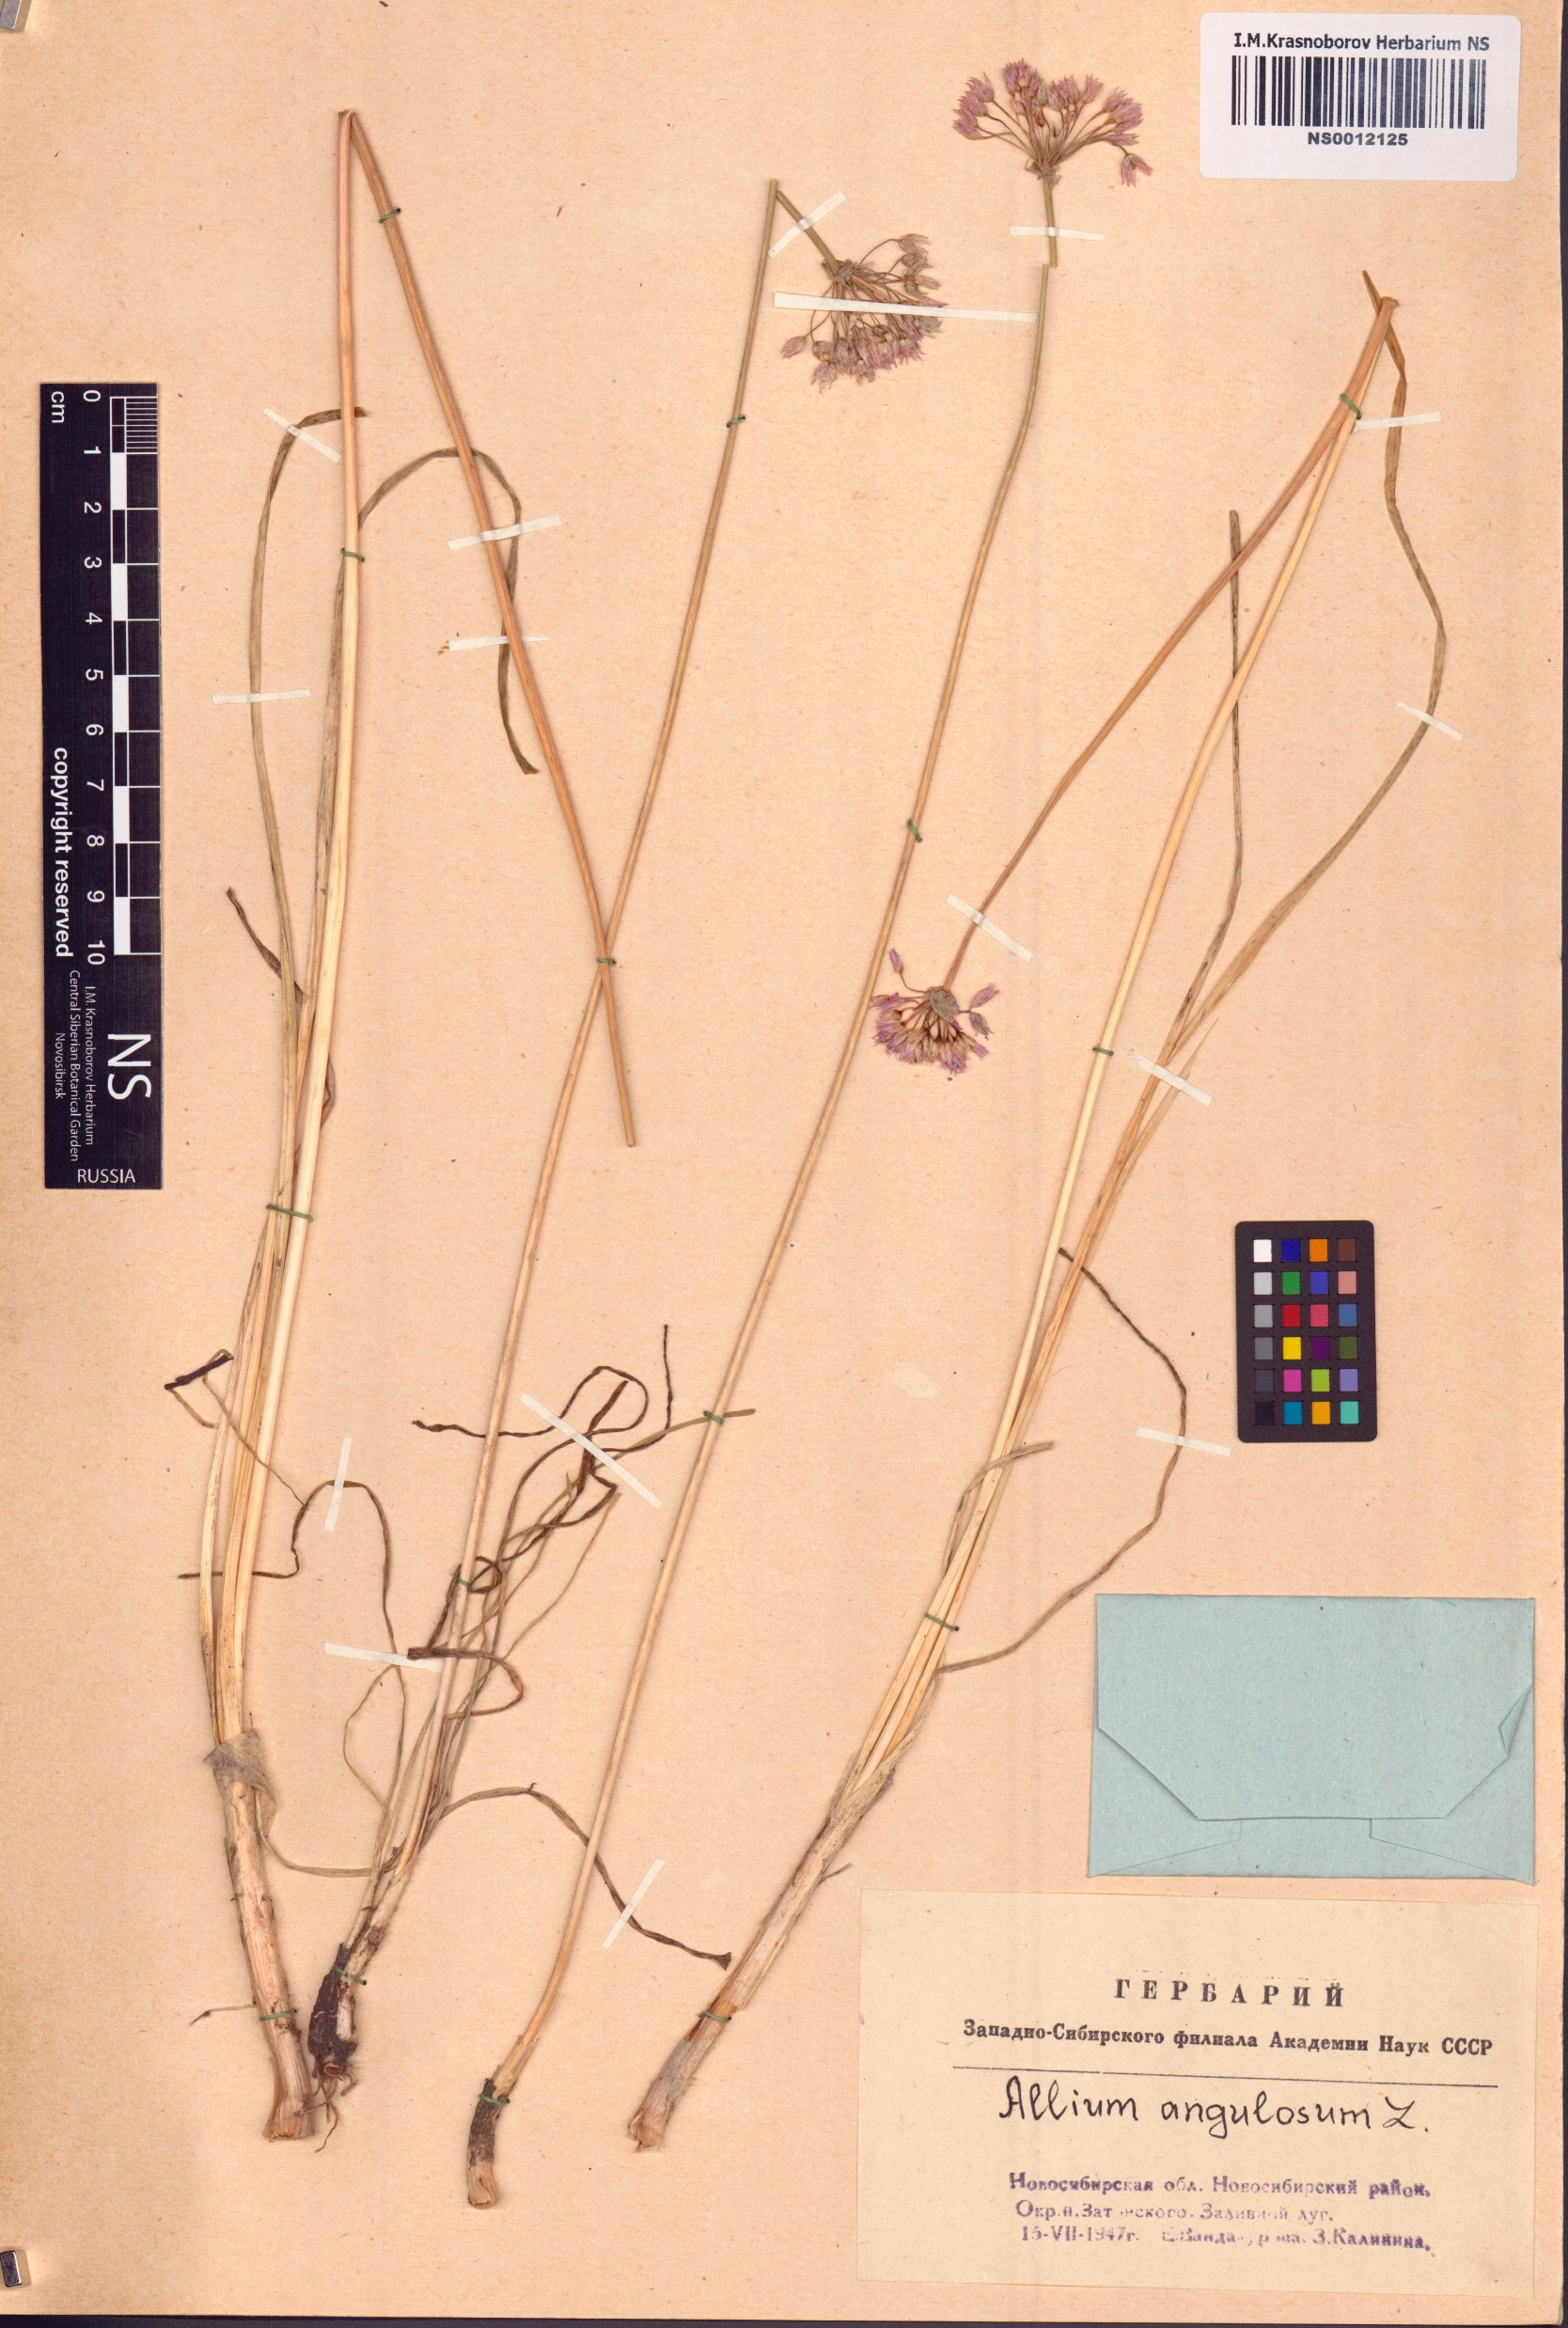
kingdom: Plantae
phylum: Tracheophyta
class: Liliopsida
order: Asparagales
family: Amaryllidaceae
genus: Allium
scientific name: Allium angulosum
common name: Mouse garlic
